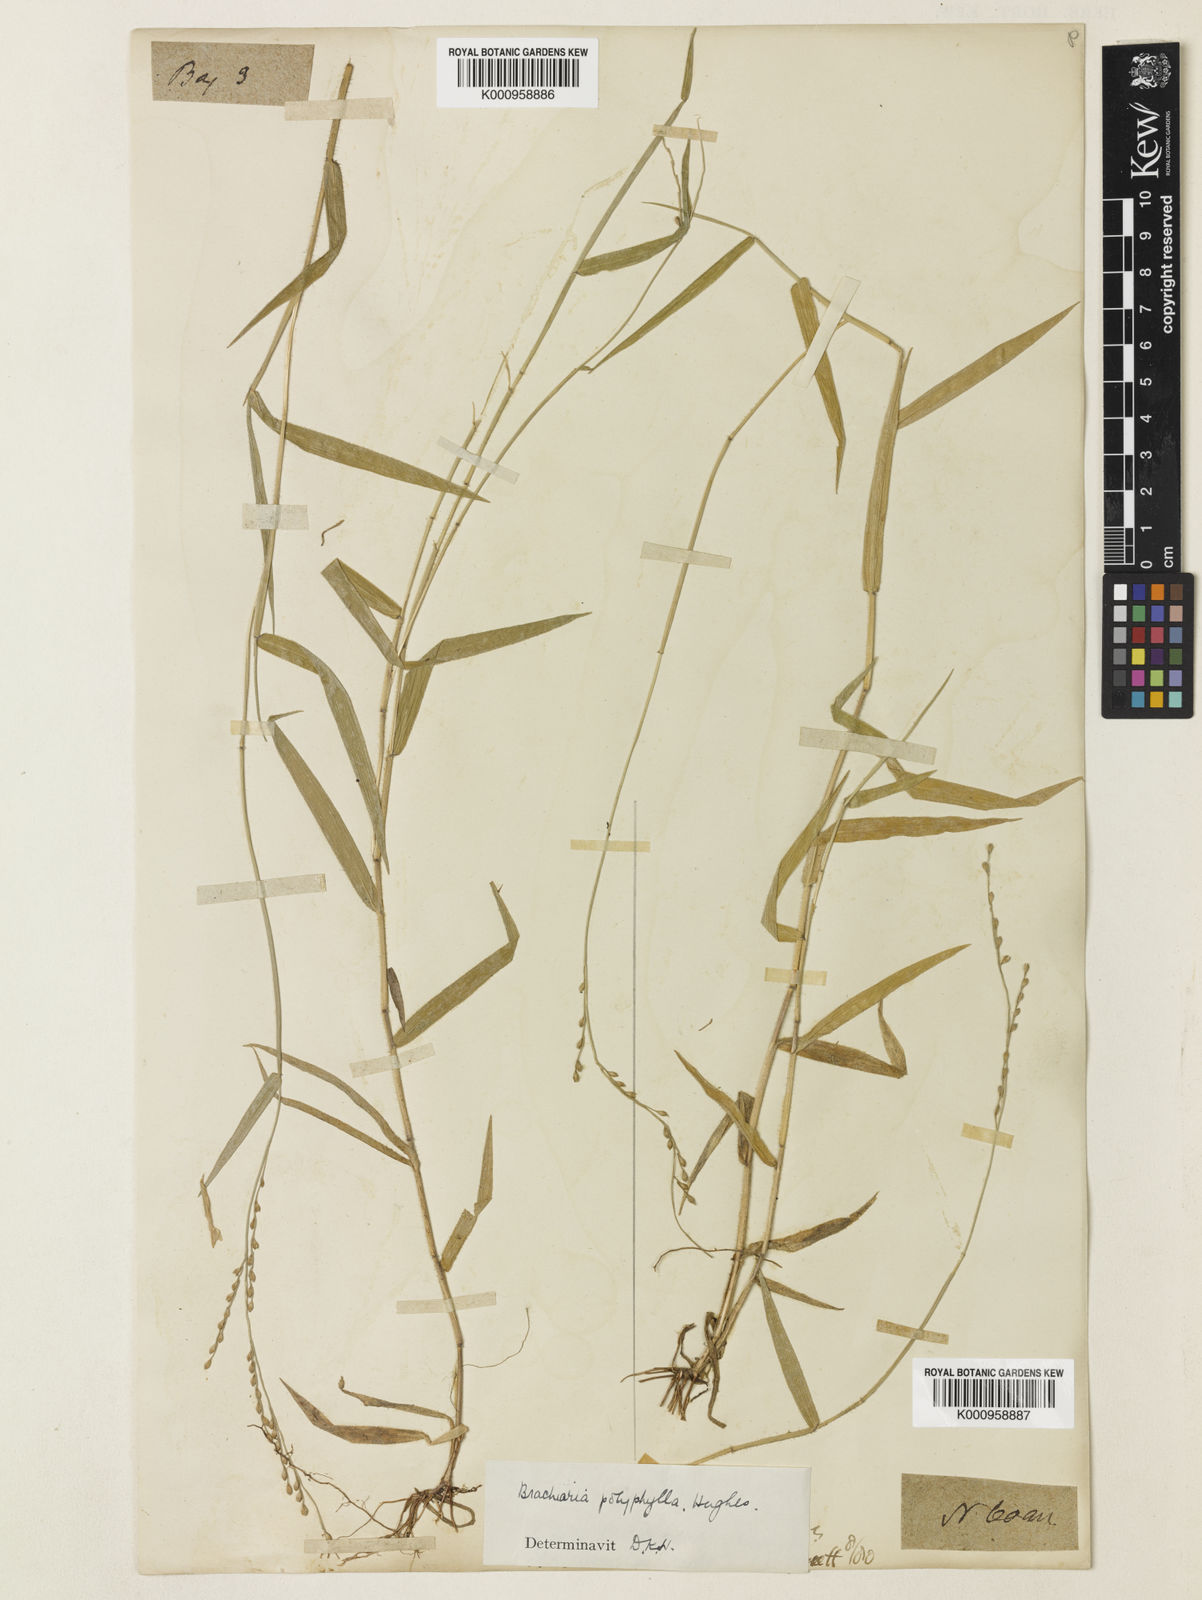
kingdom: Plantae
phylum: Tracheophyta
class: Liliopsida
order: Poales
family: Poaceae
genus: Urochloa
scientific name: Urochloa polyphylla
